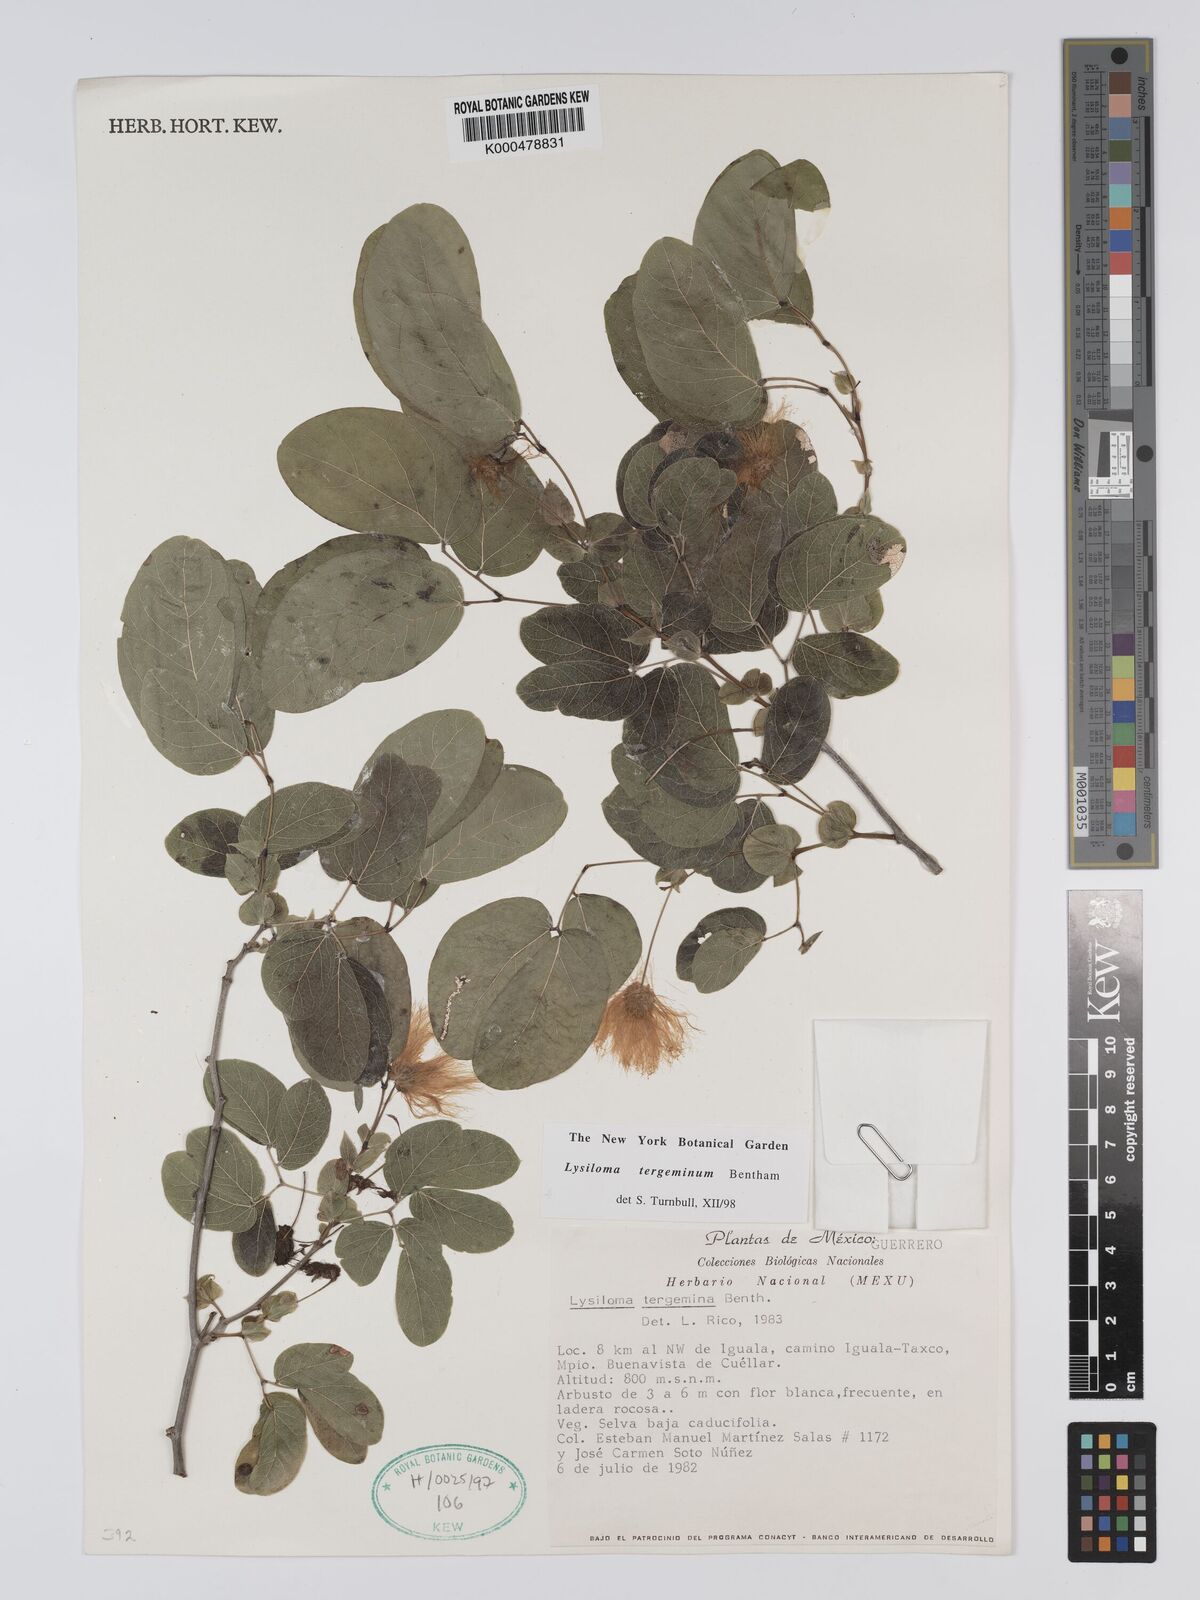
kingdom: Plantae
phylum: Tracheophyta
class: Magnoliopsida
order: Fabales
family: Fabaceae
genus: Lysiloma
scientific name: Lysiloma tergeminum
